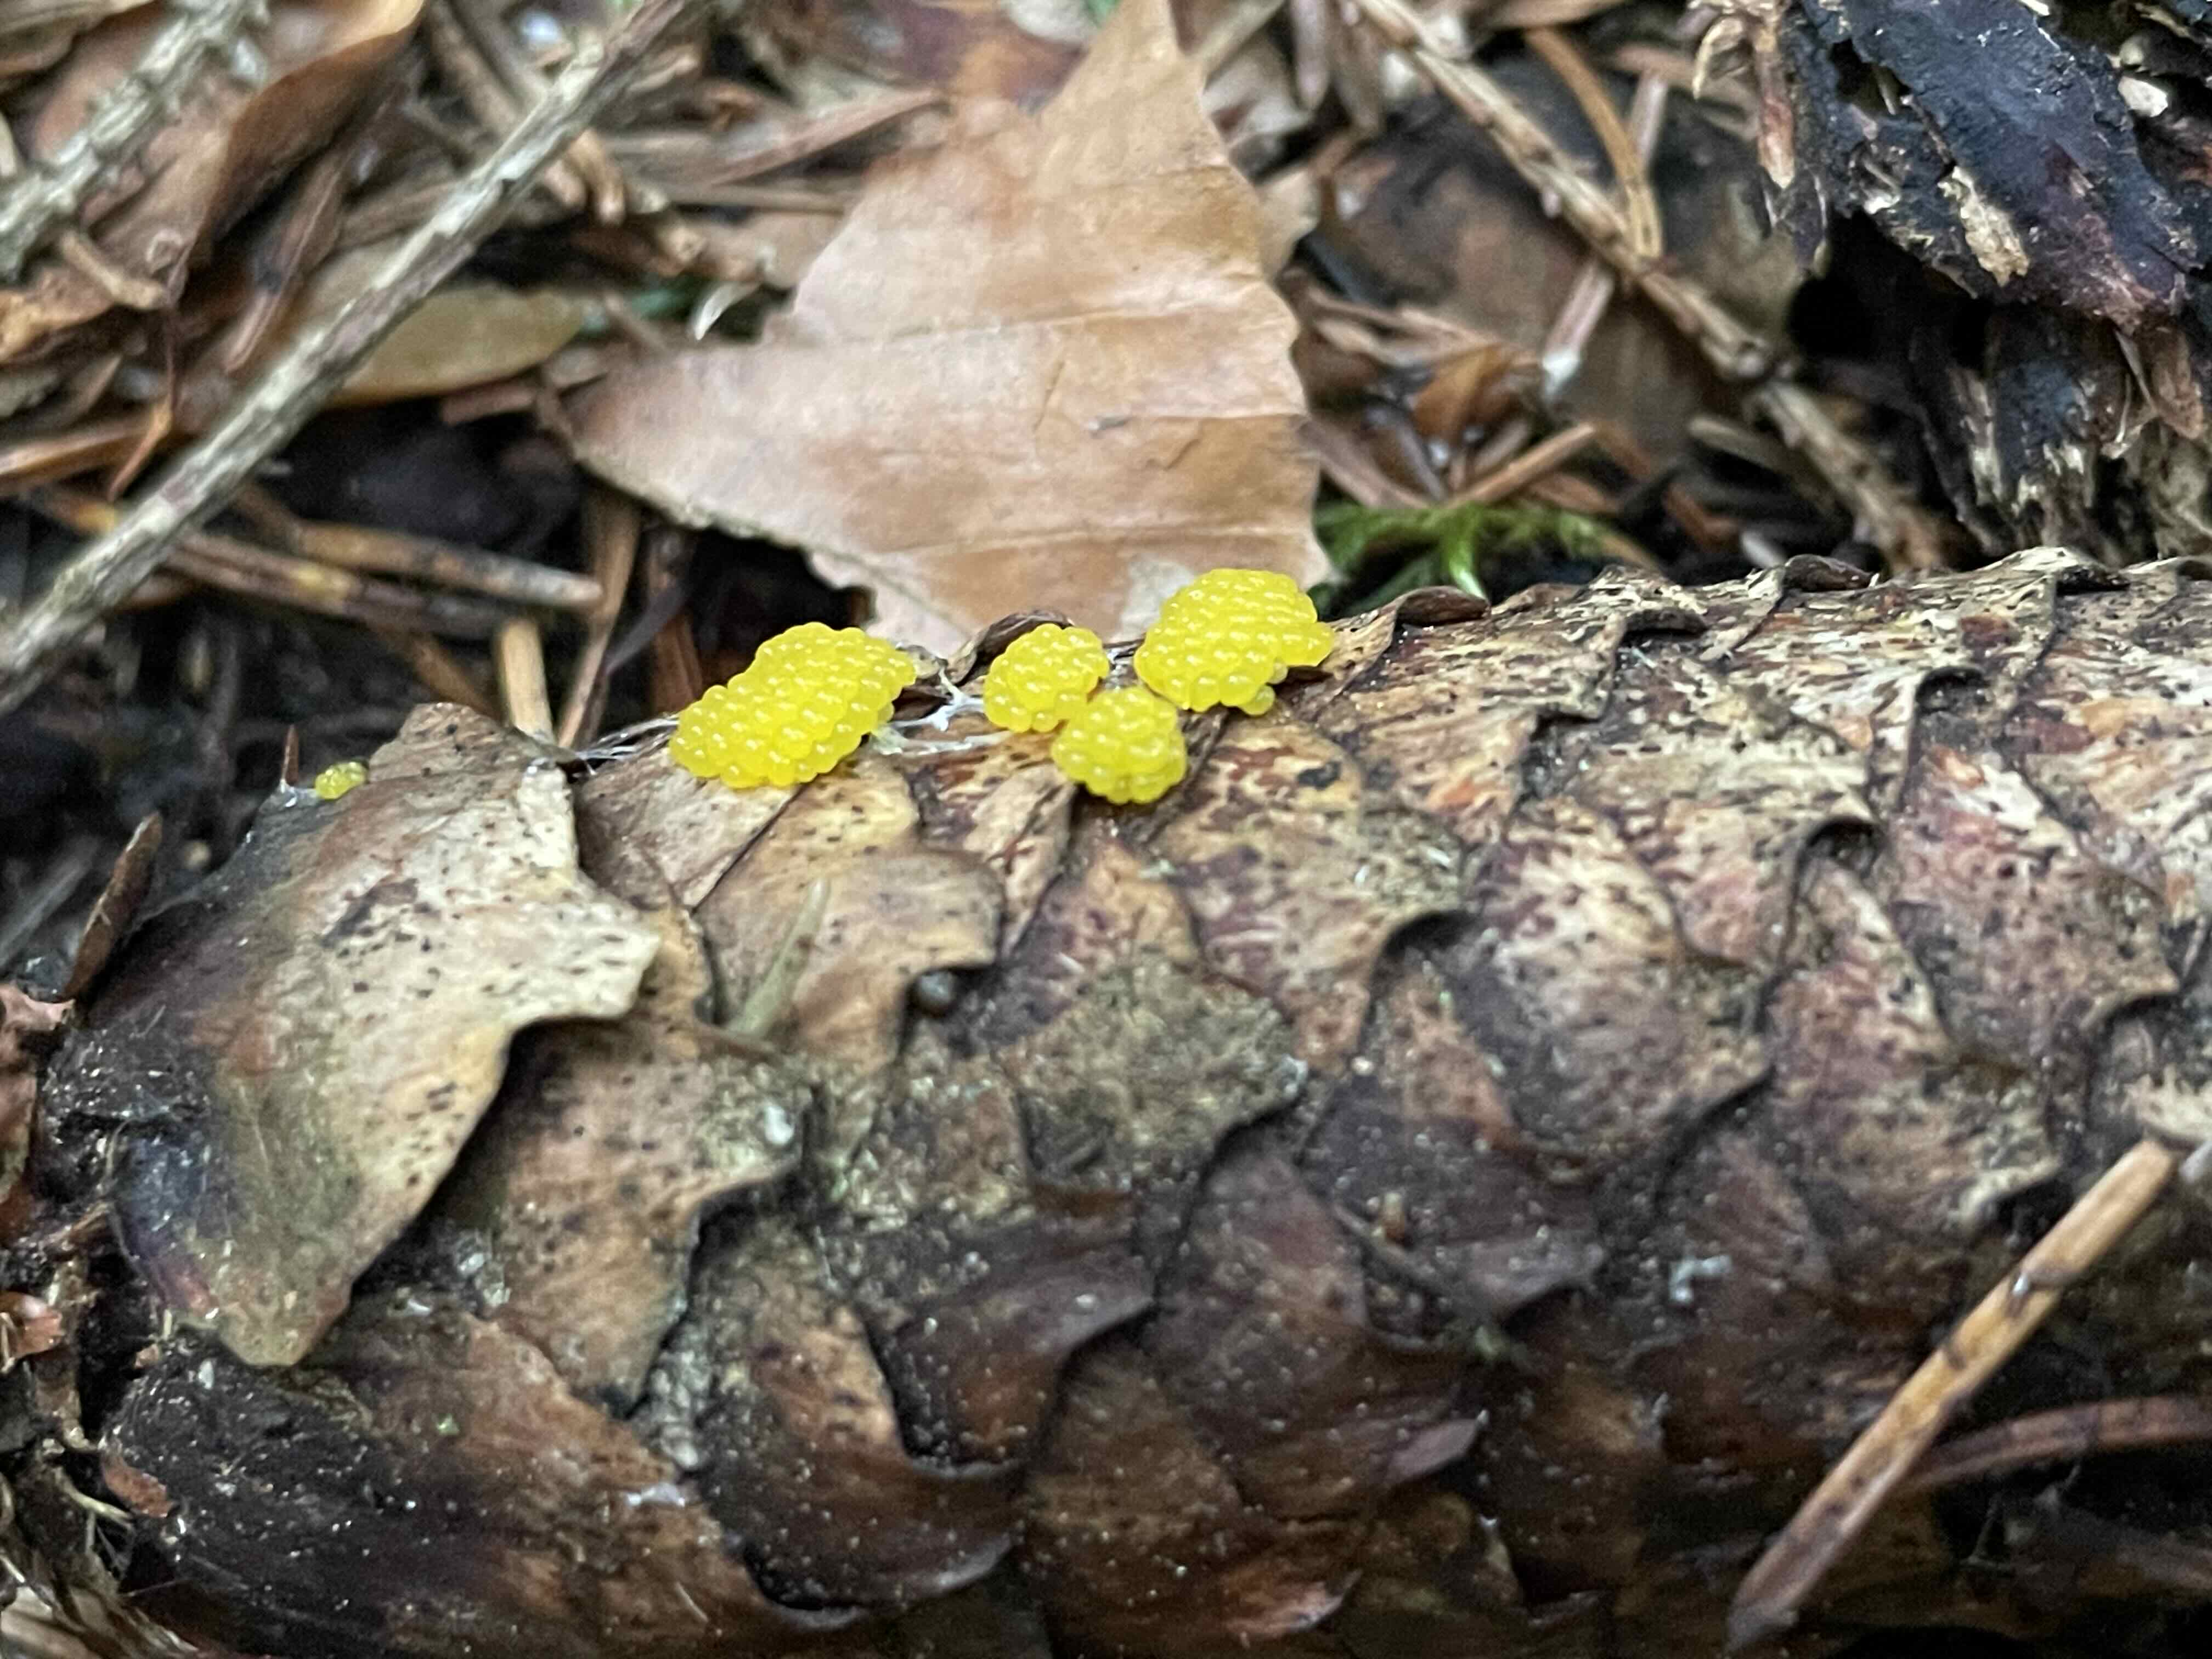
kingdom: Protozoa
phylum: Mycetozoa
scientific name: Mycetozoa
